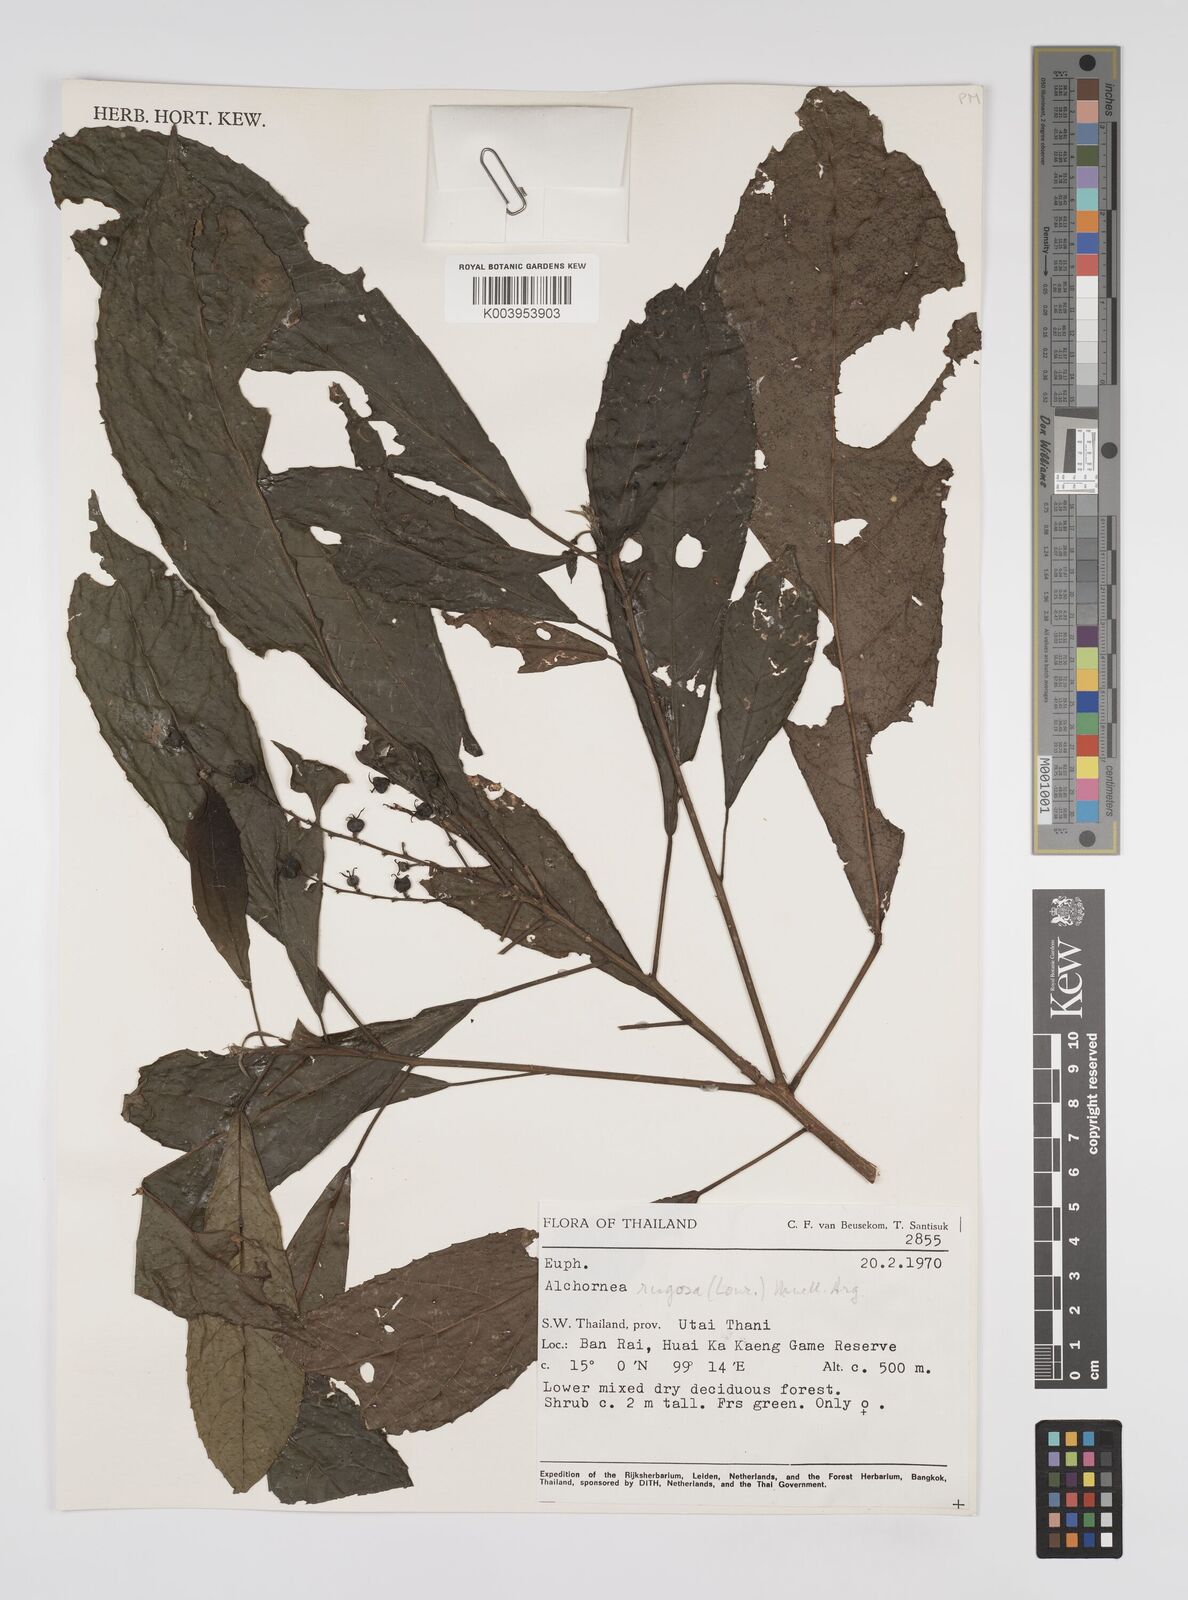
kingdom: Plantae
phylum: Tracheophyta
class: Magnoliopsida
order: Malpighiales
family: Euphorbiaceae
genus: Alchornea
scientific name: Alchornea rugosa
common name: Alchorntree
